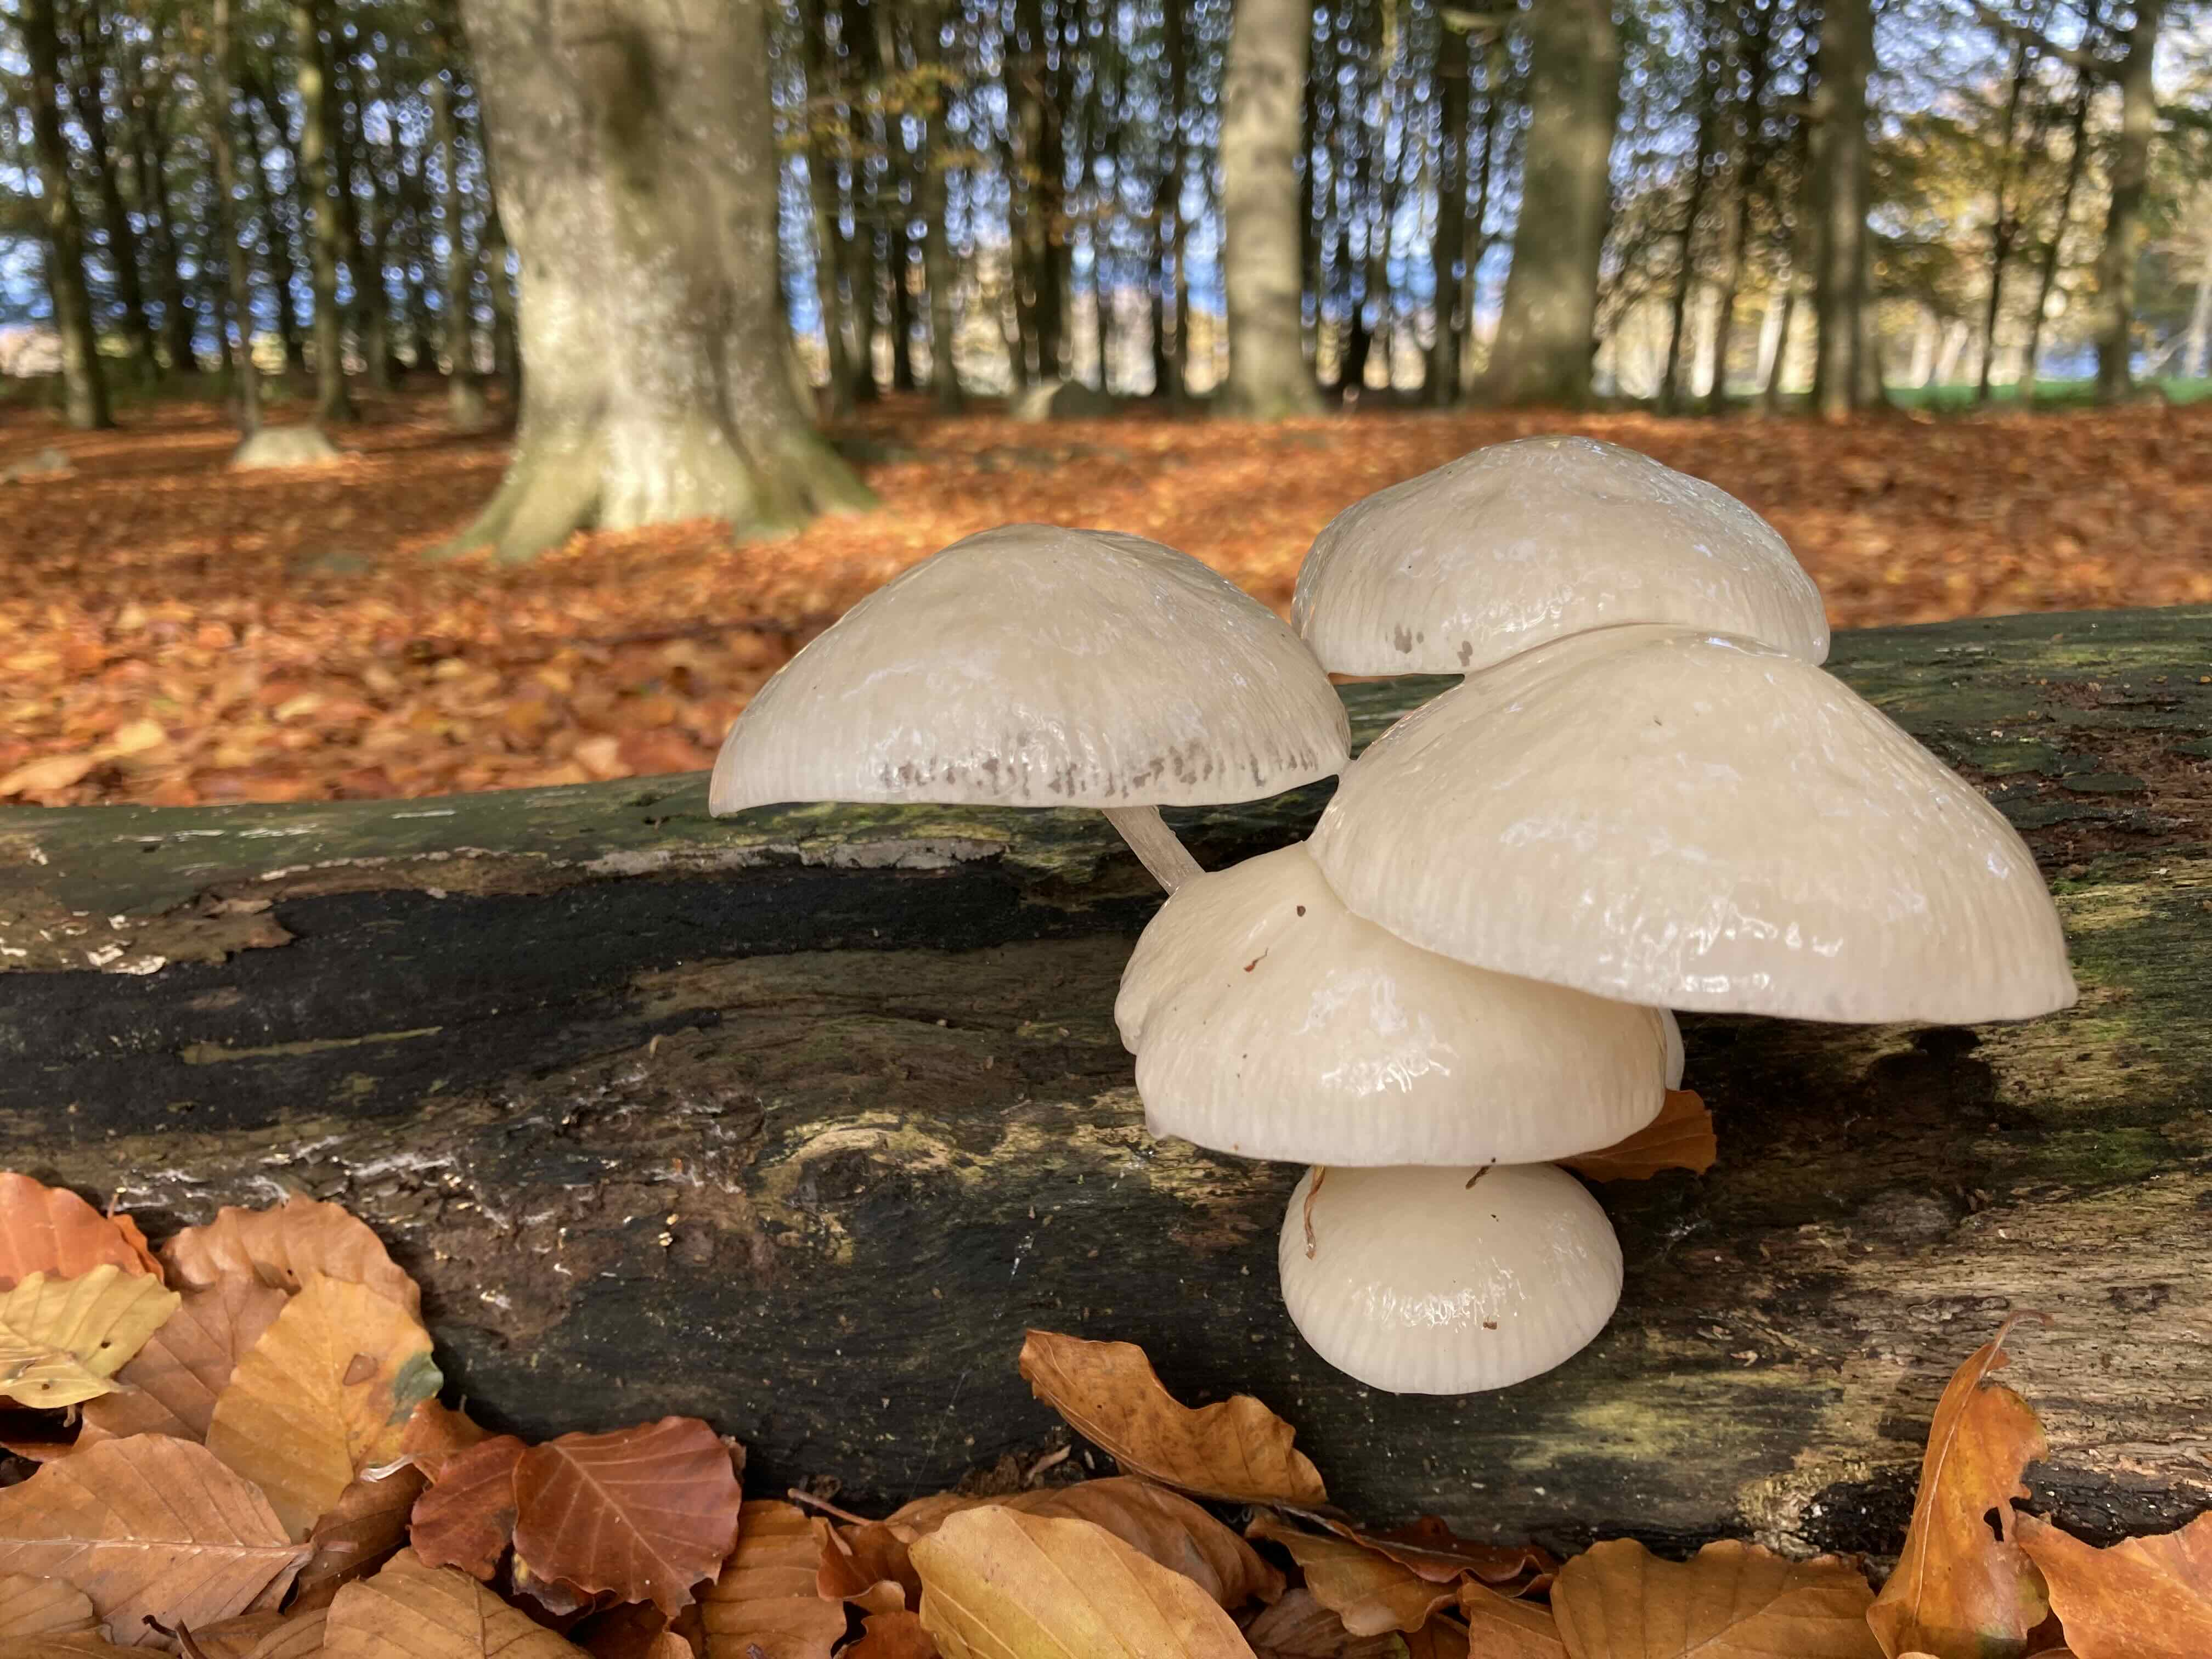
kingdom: Fungi
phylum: Basidiomycota
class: Agaricomycetes
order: Agaricales
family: Physalacriaceae
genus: Mucidula
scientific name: Mucidula mucida
